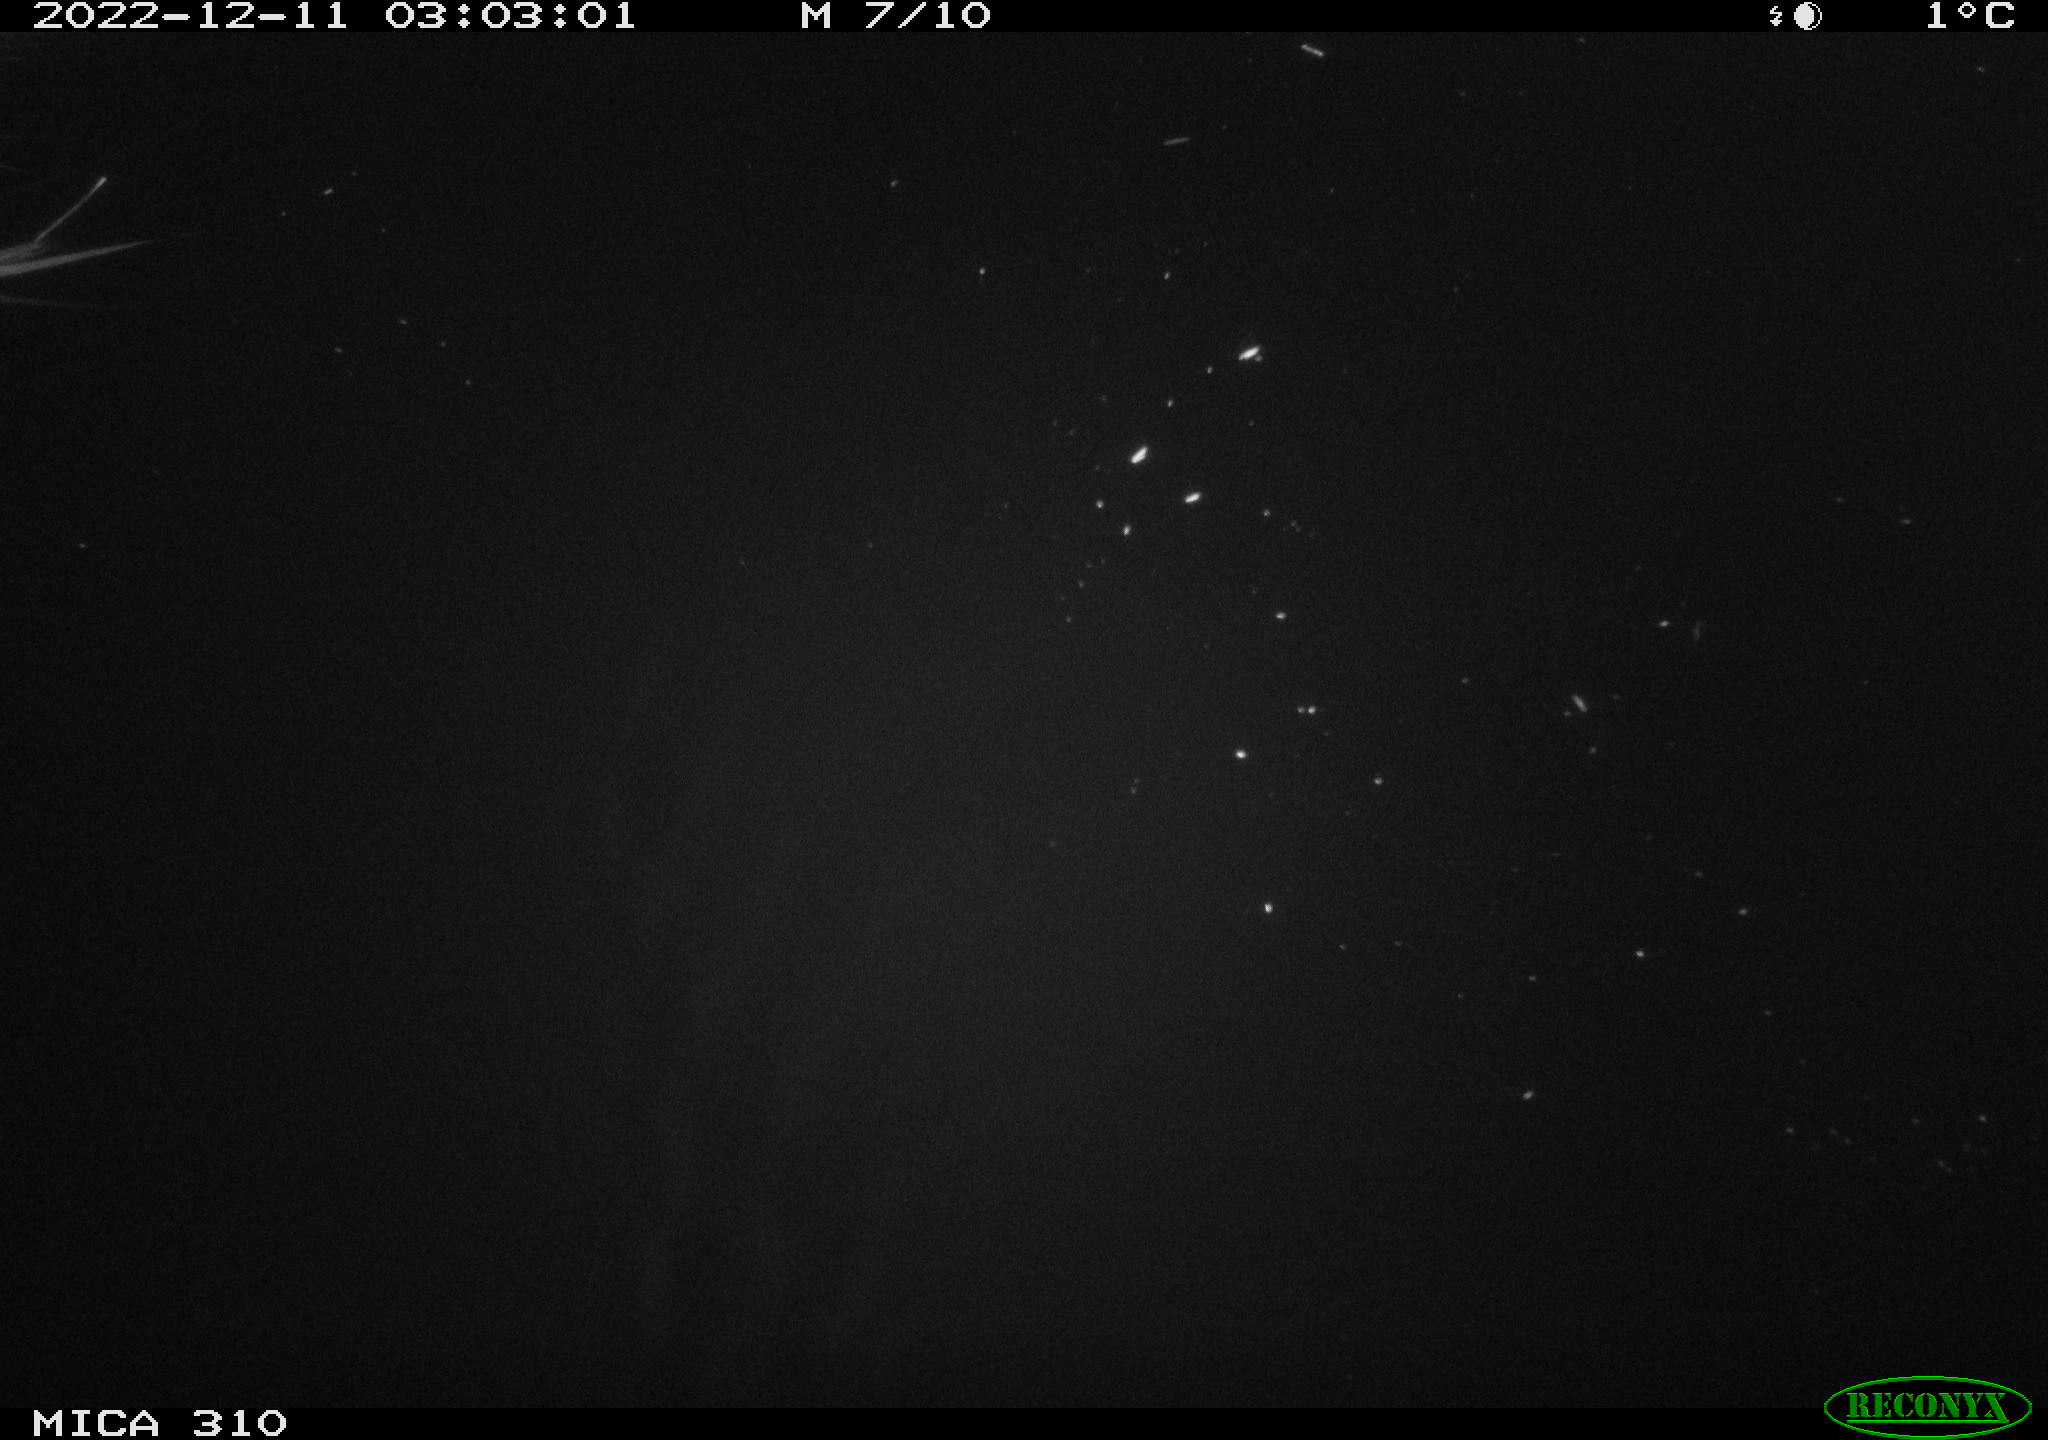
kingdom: Animalia
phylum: Chordata
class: Mammalia
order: Rodentia
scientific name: Rodentia
